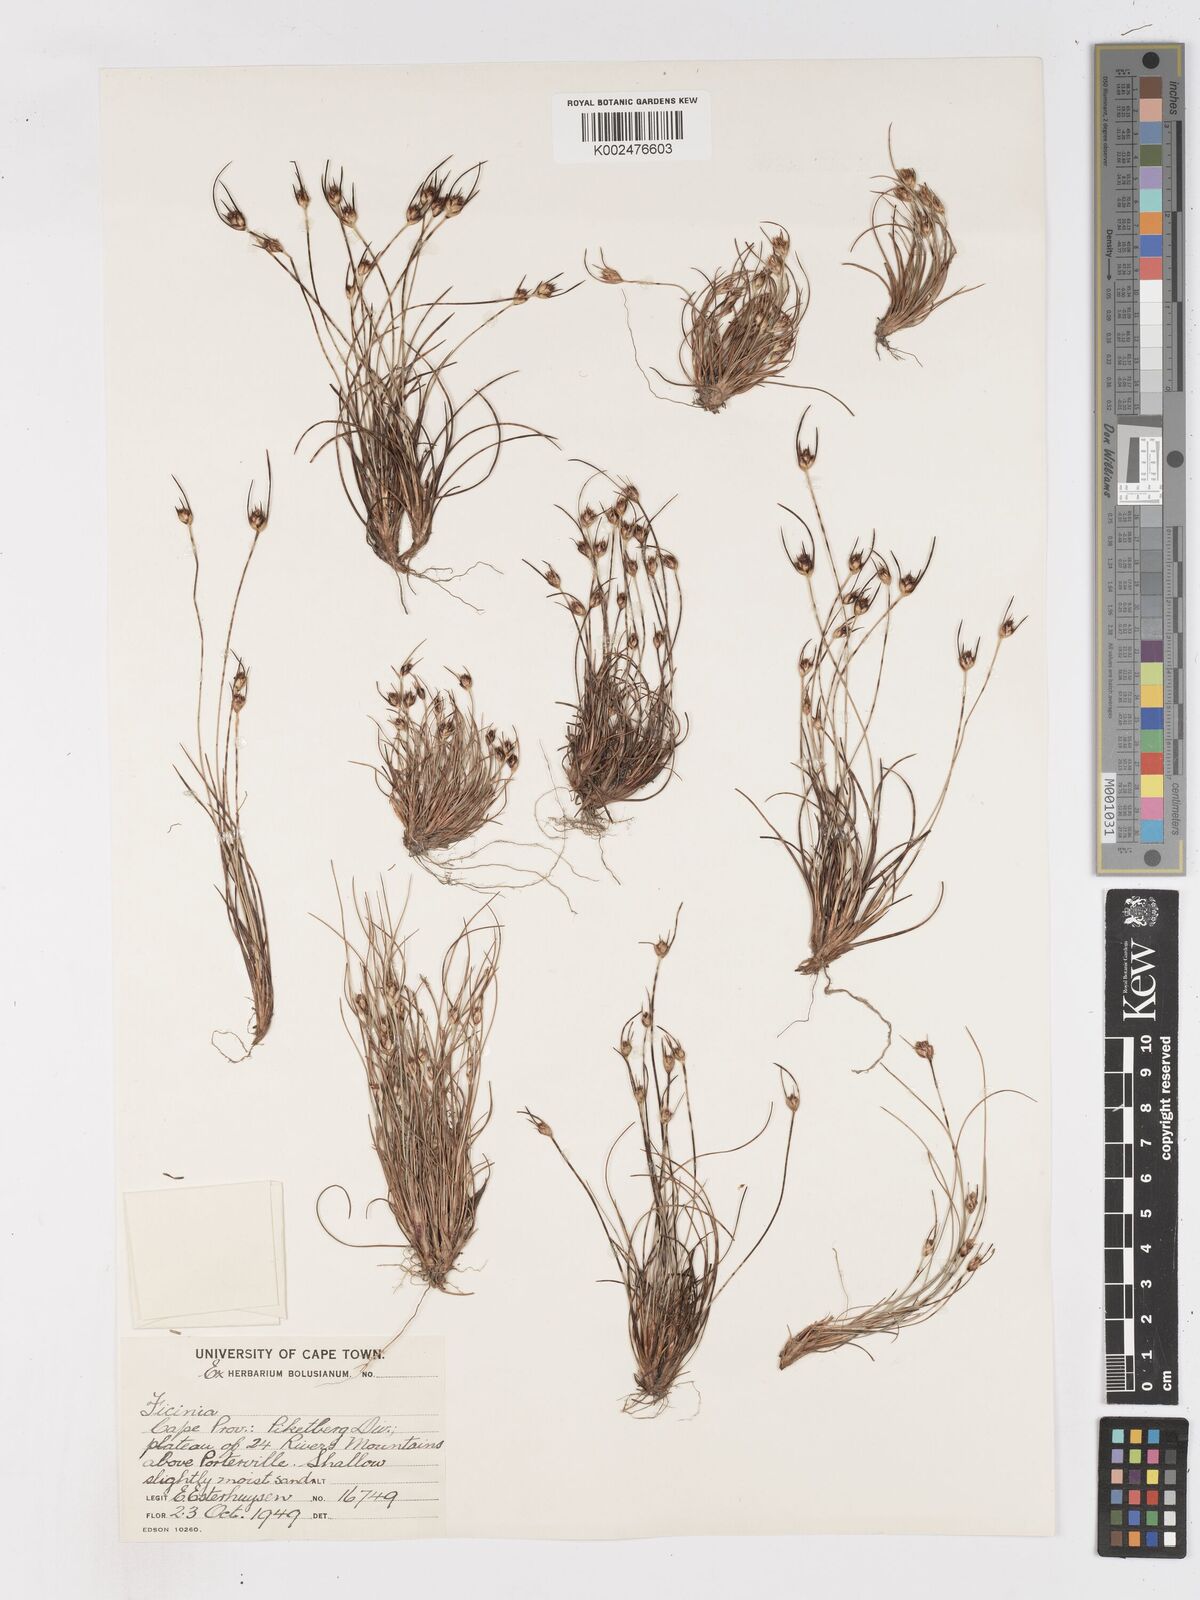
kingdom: Plantae
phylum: Tracheophyta
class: Liliopsida
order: Poales
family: Cyperaceae
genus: Ficinia
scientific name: Ficinia
